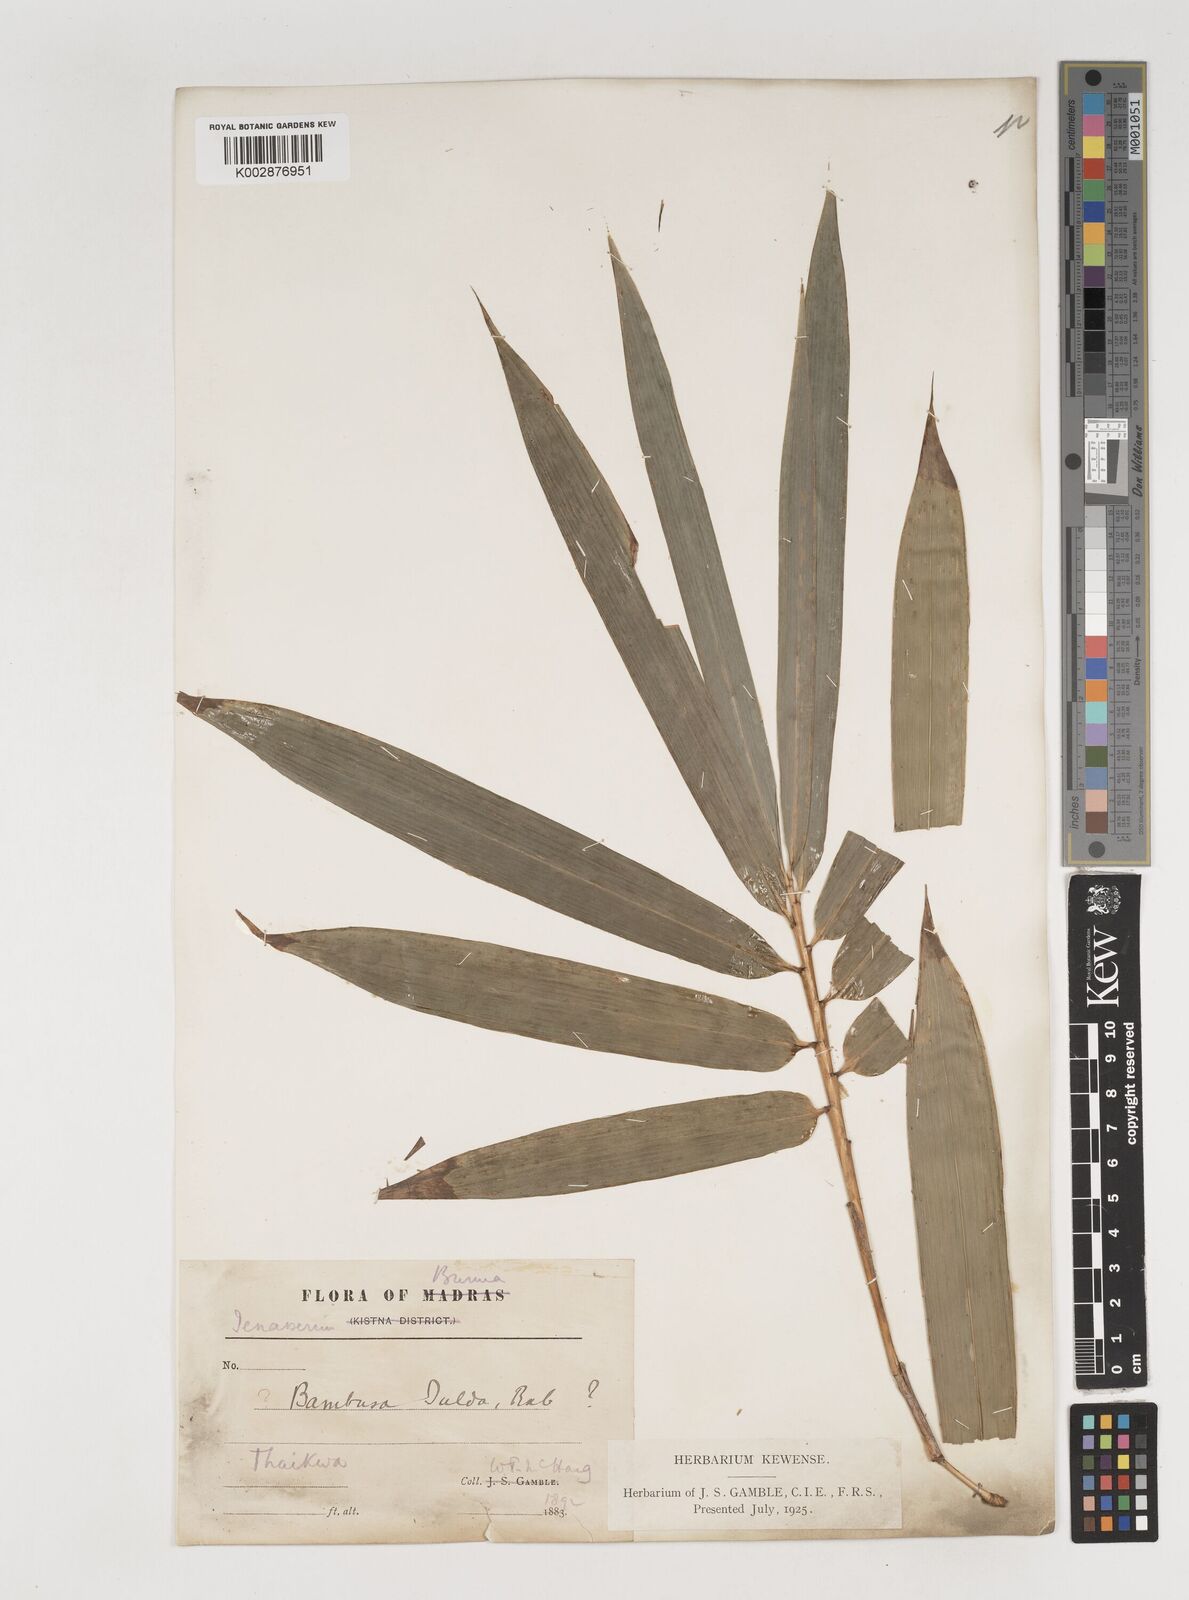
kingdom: Plantae
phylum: Tracheophyta
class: Liliopsida
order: Poales
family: Poaceae
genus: Bambusa
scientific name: Bambusa tulda
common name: Bengal bamboo
